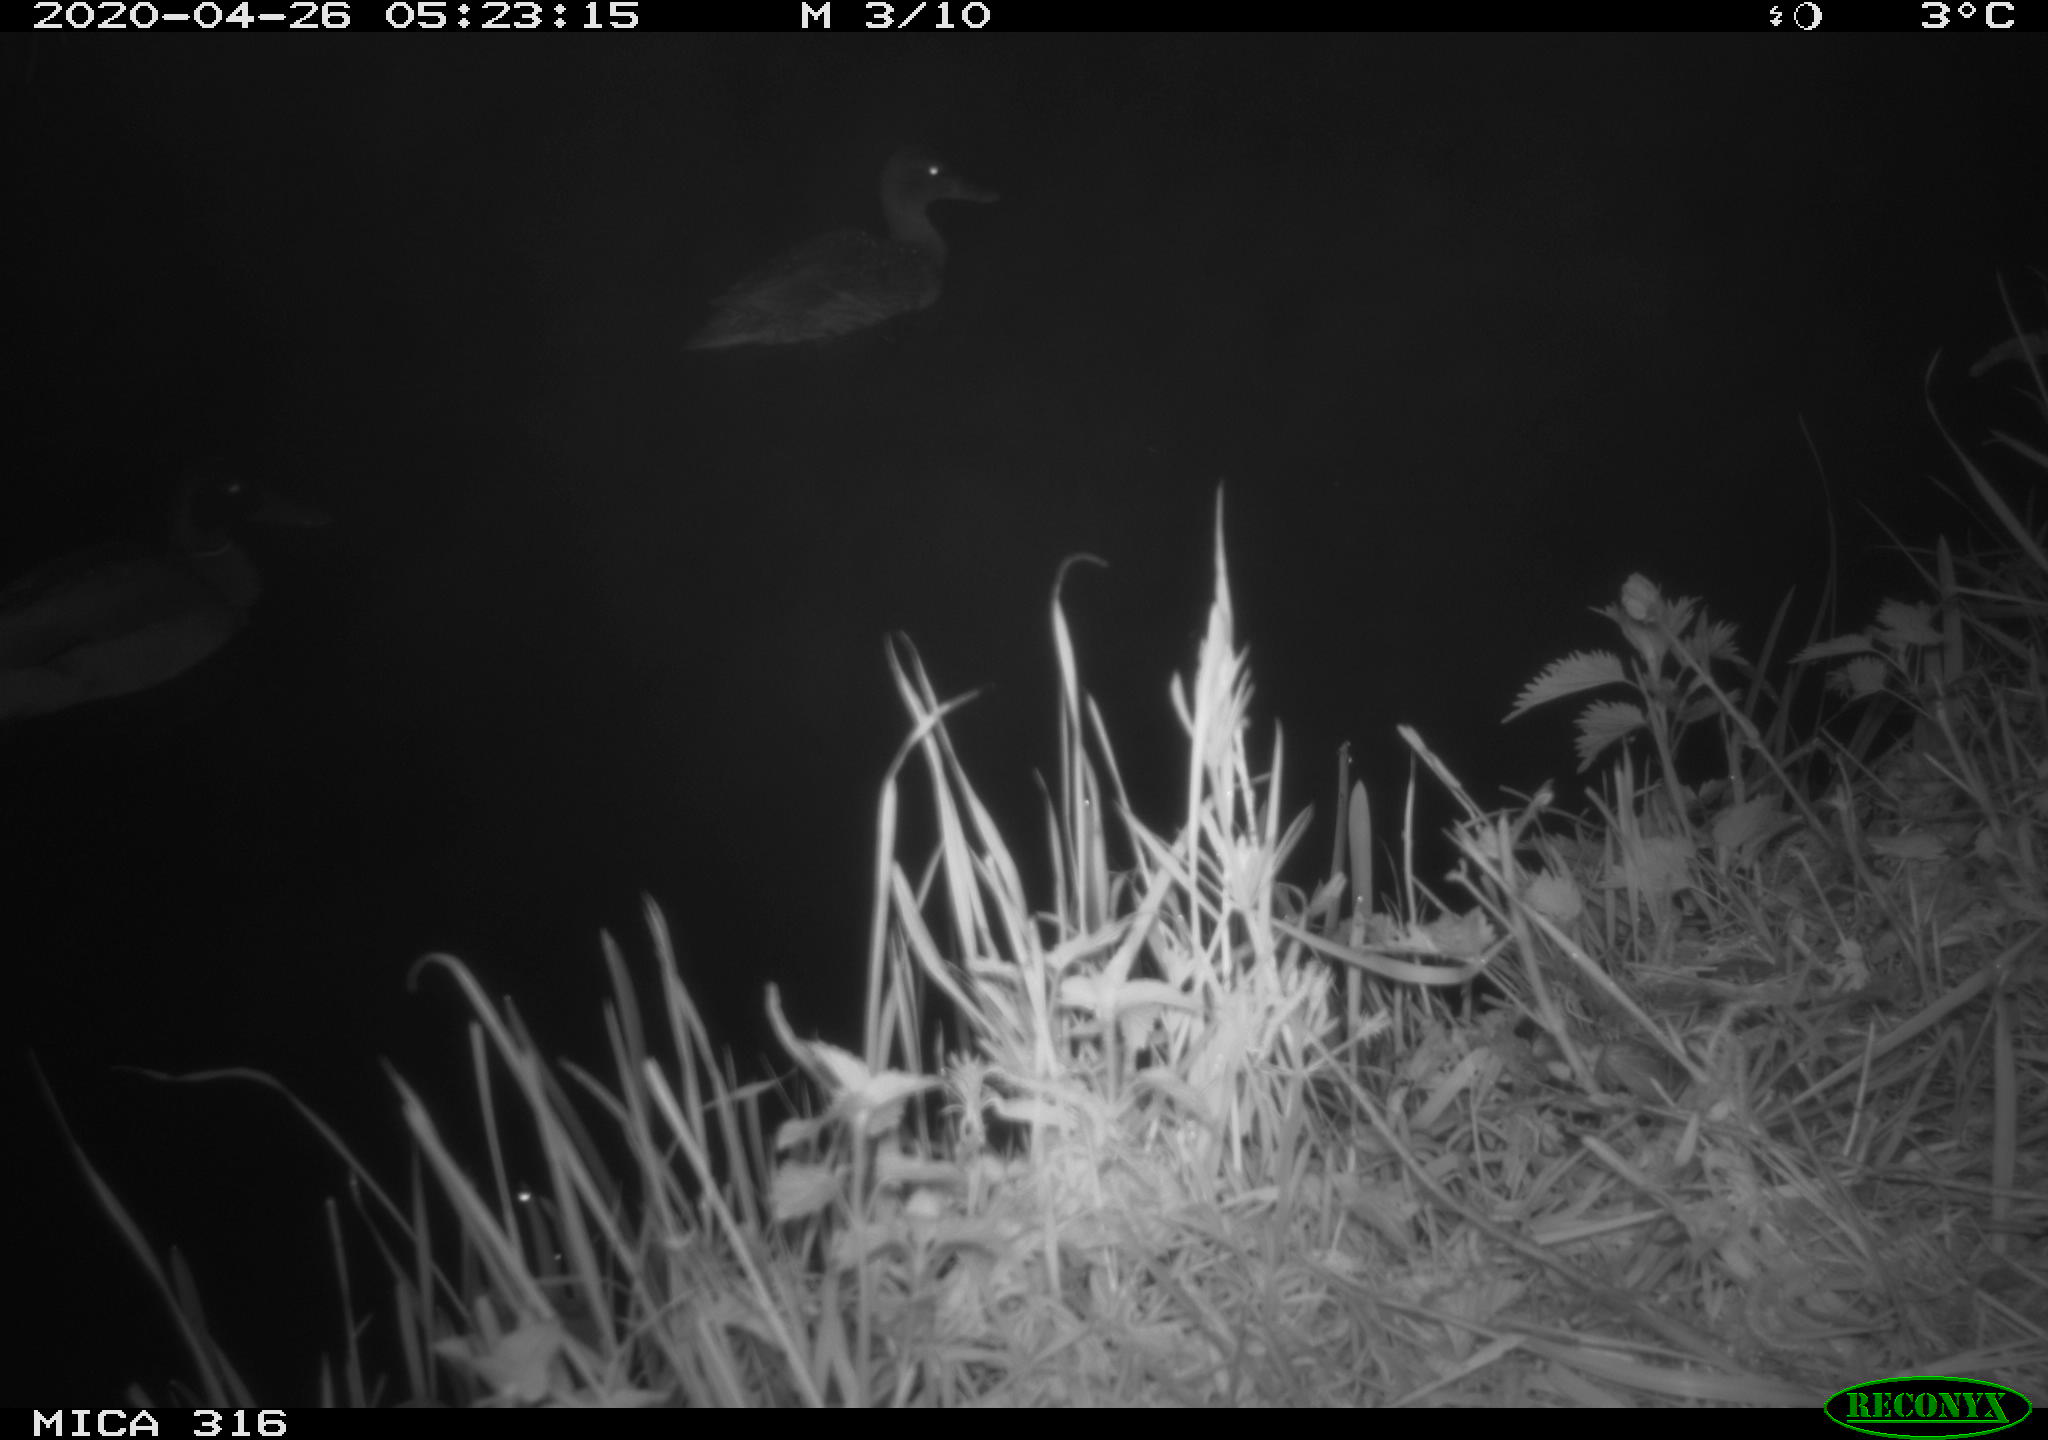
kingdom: Animalia
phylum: Chordata
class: Aves
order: Anseriformes
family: Anatidae
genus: Anas
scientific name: Anas platyrhynchos
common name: Mallard
